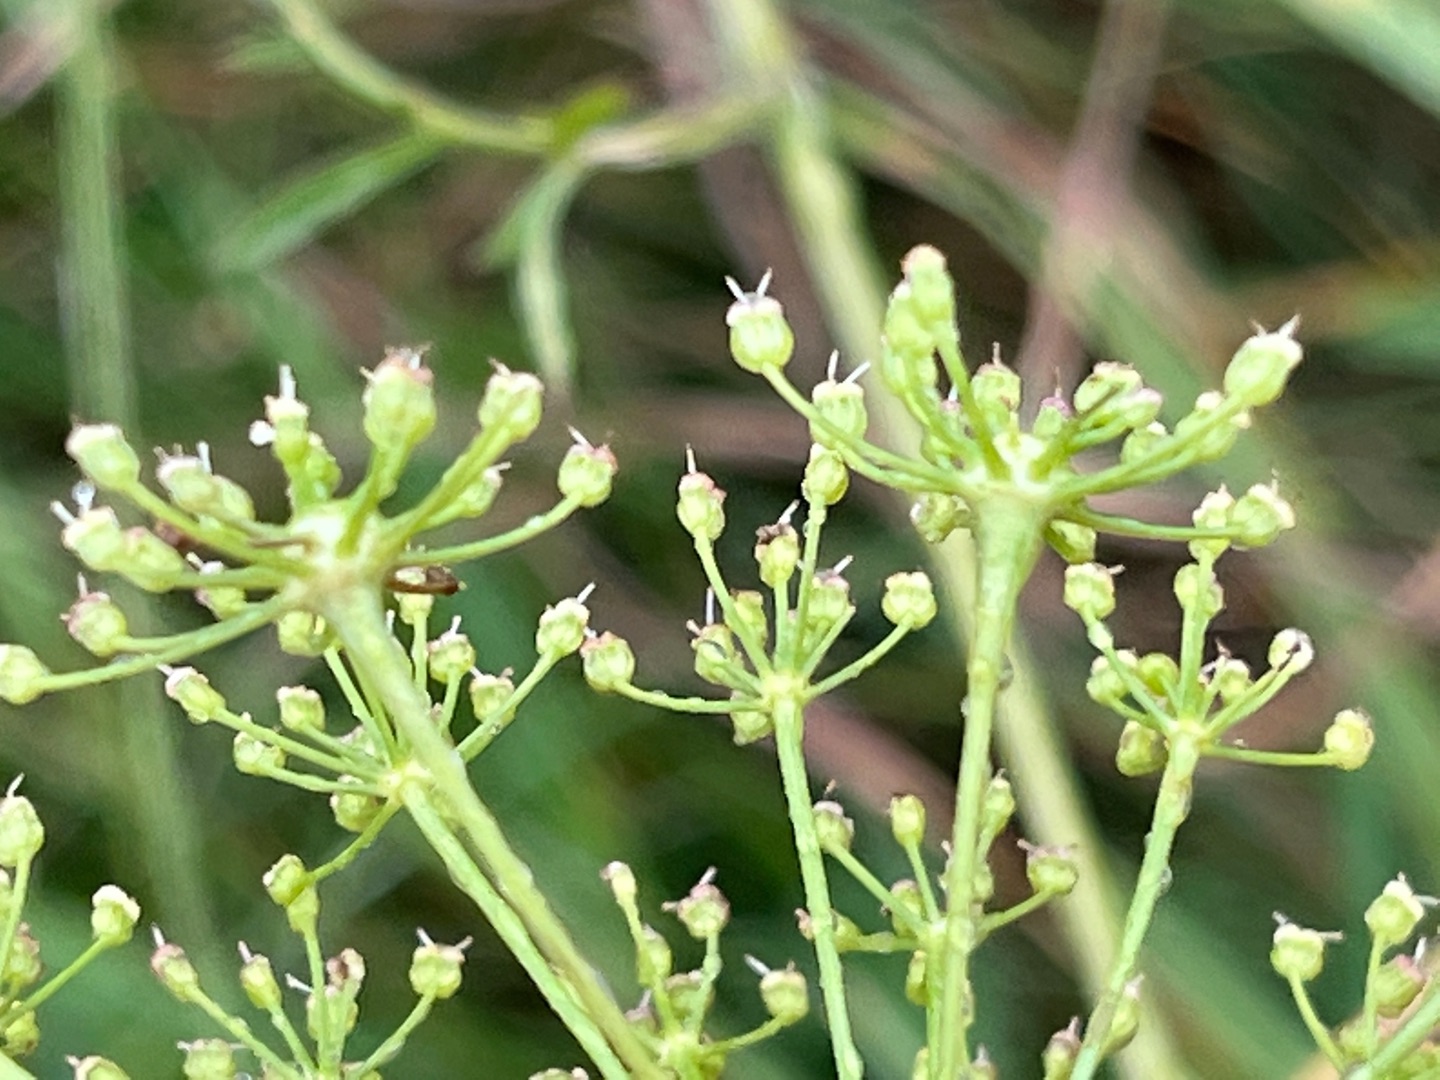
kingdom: Animalia
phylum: Arthropoda
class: Insecta
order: Diptera
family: Cecidomyiidae
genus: Lasioptera
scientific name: Lasioptera carophila
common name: Skærmgalmyg
